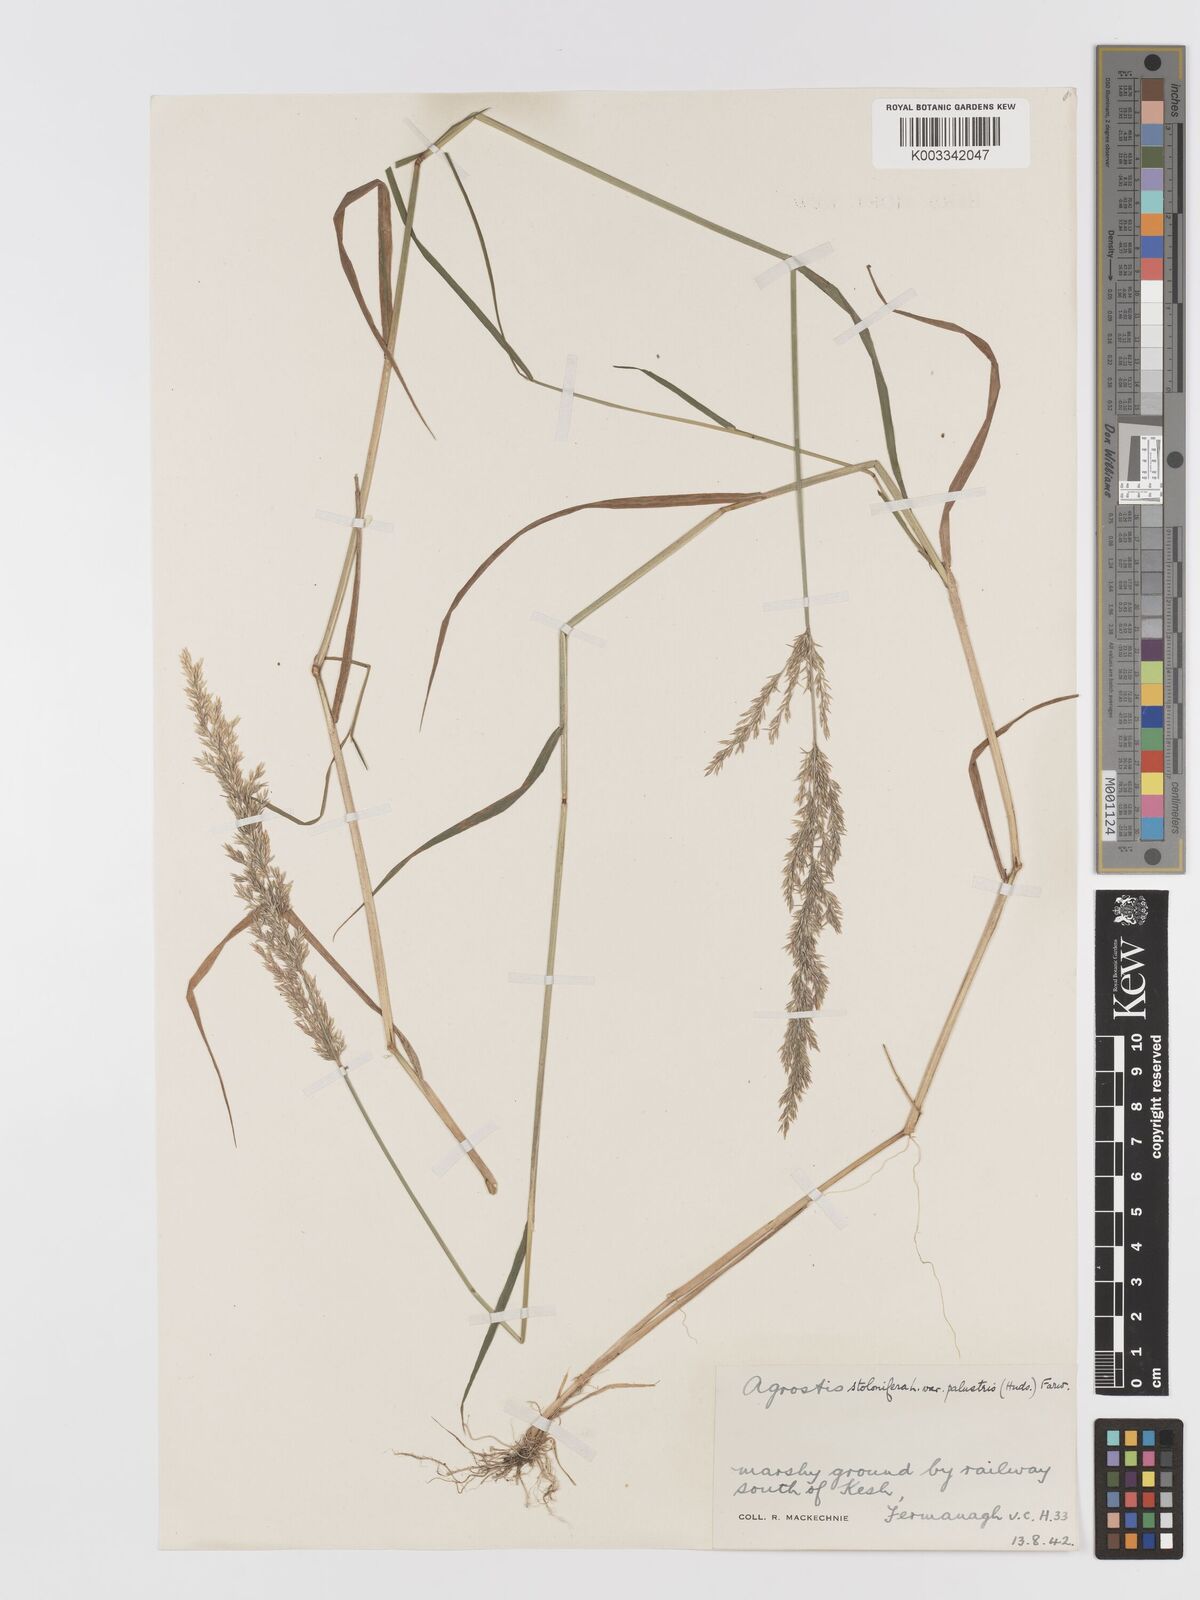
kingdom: Plantae
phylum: Tracheophyta
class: Liliopsida
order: Poales
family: Poaceae
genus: Agrostis
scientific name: Agrostis stolonifera
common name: Creeping bentgrass
